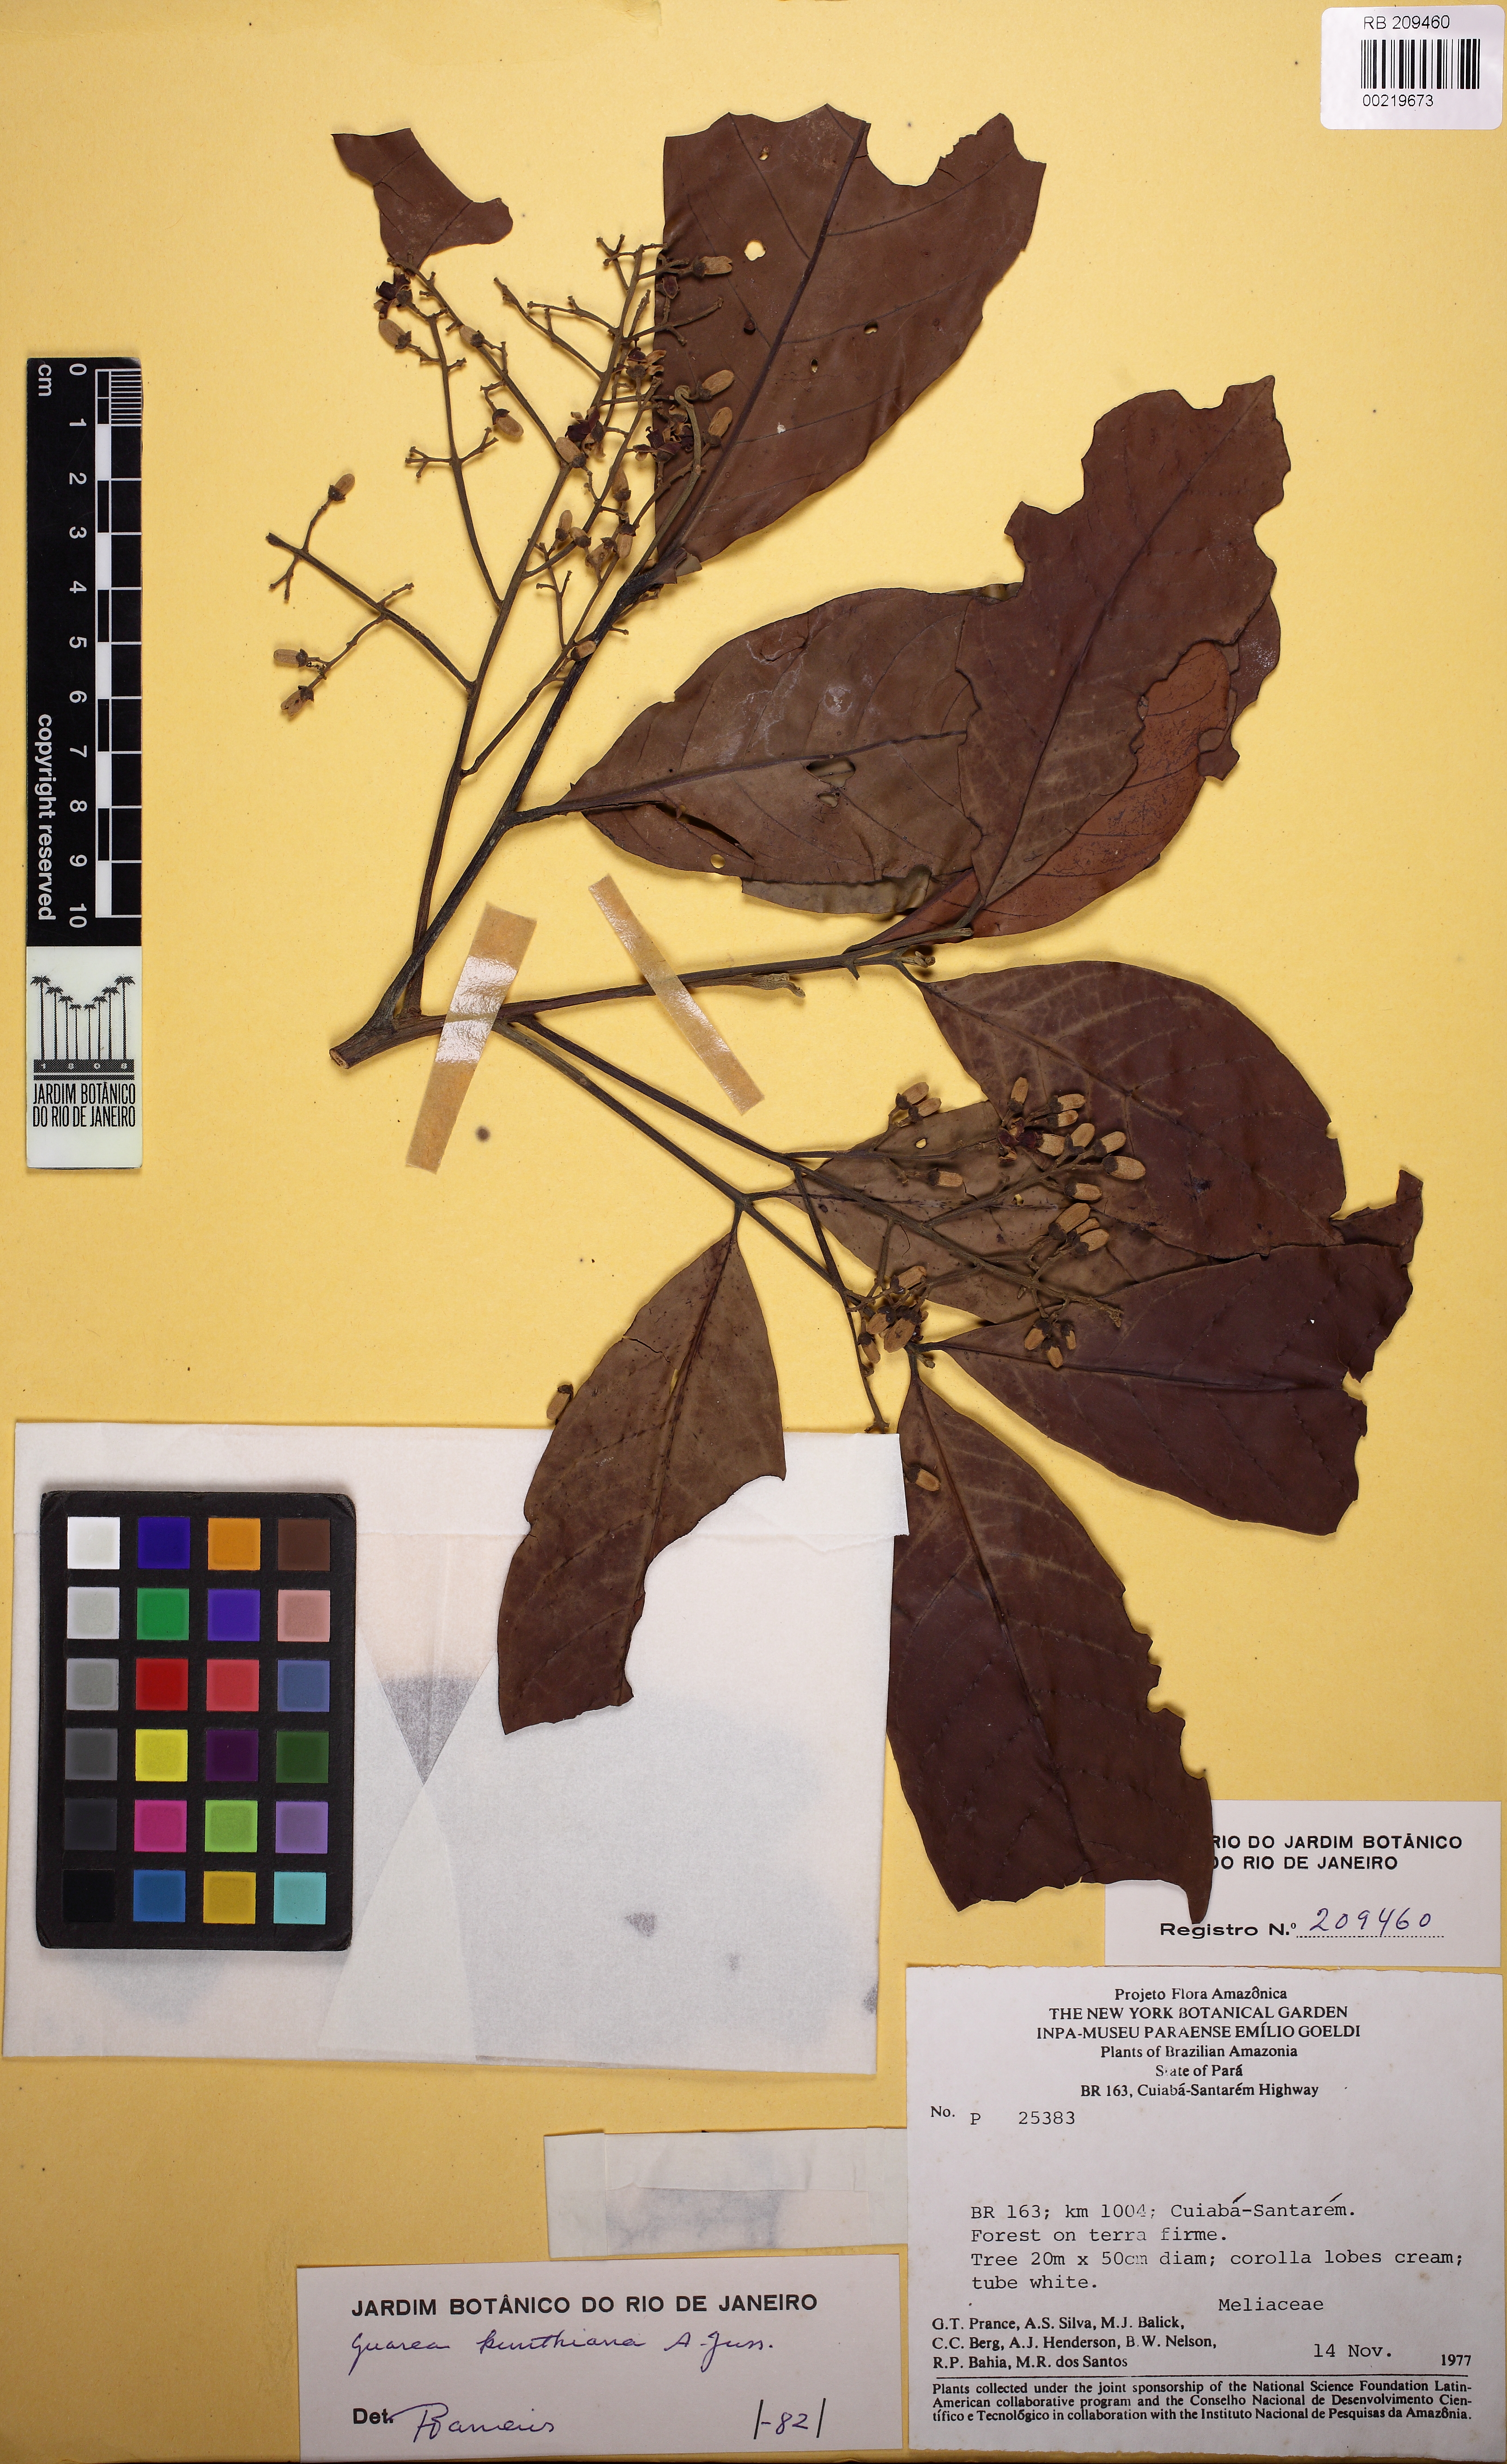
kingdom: Plantae
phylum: Tracheophyta
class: Magnoliopsida
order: Sapindales
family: Meliaceae
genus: Guarea
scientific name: Guarea kunthiana
